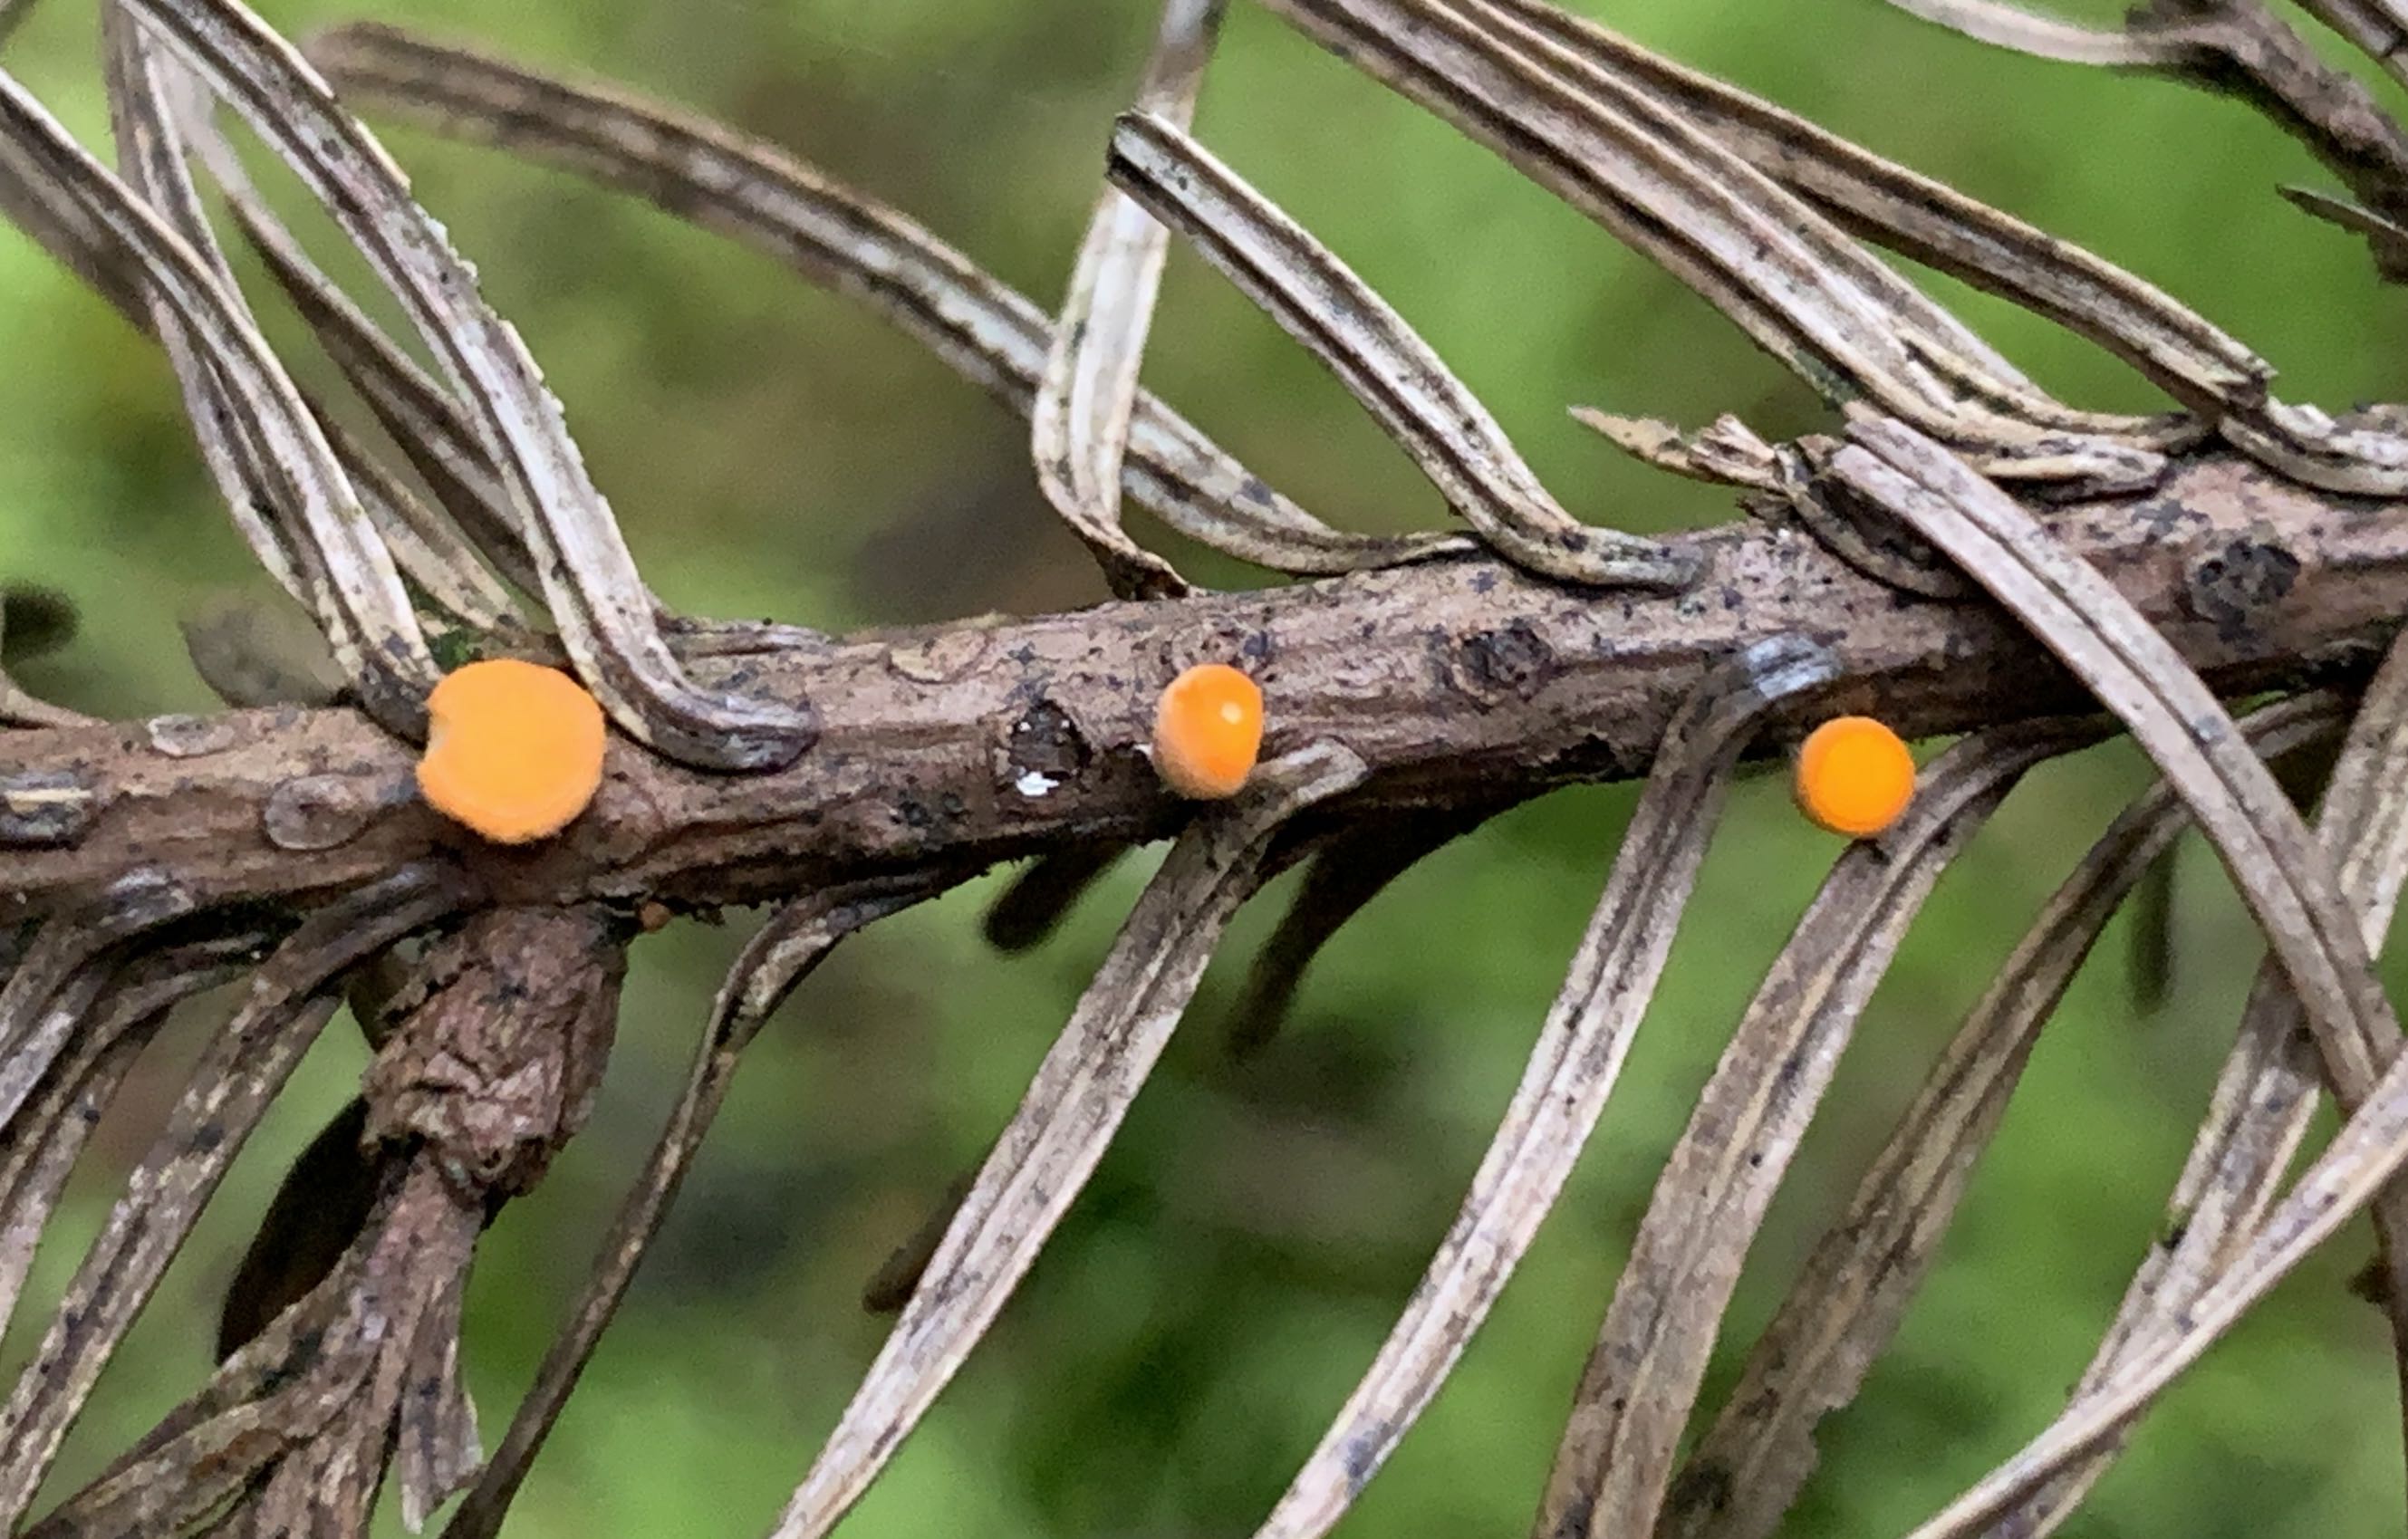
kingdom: Fungi
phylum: Ascomycota
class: Pezizomycetes
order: Pezizales
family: Sarcoscyphaceae
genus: Pithya
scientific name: Pithya vulgaris
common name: stor dukatbæger
